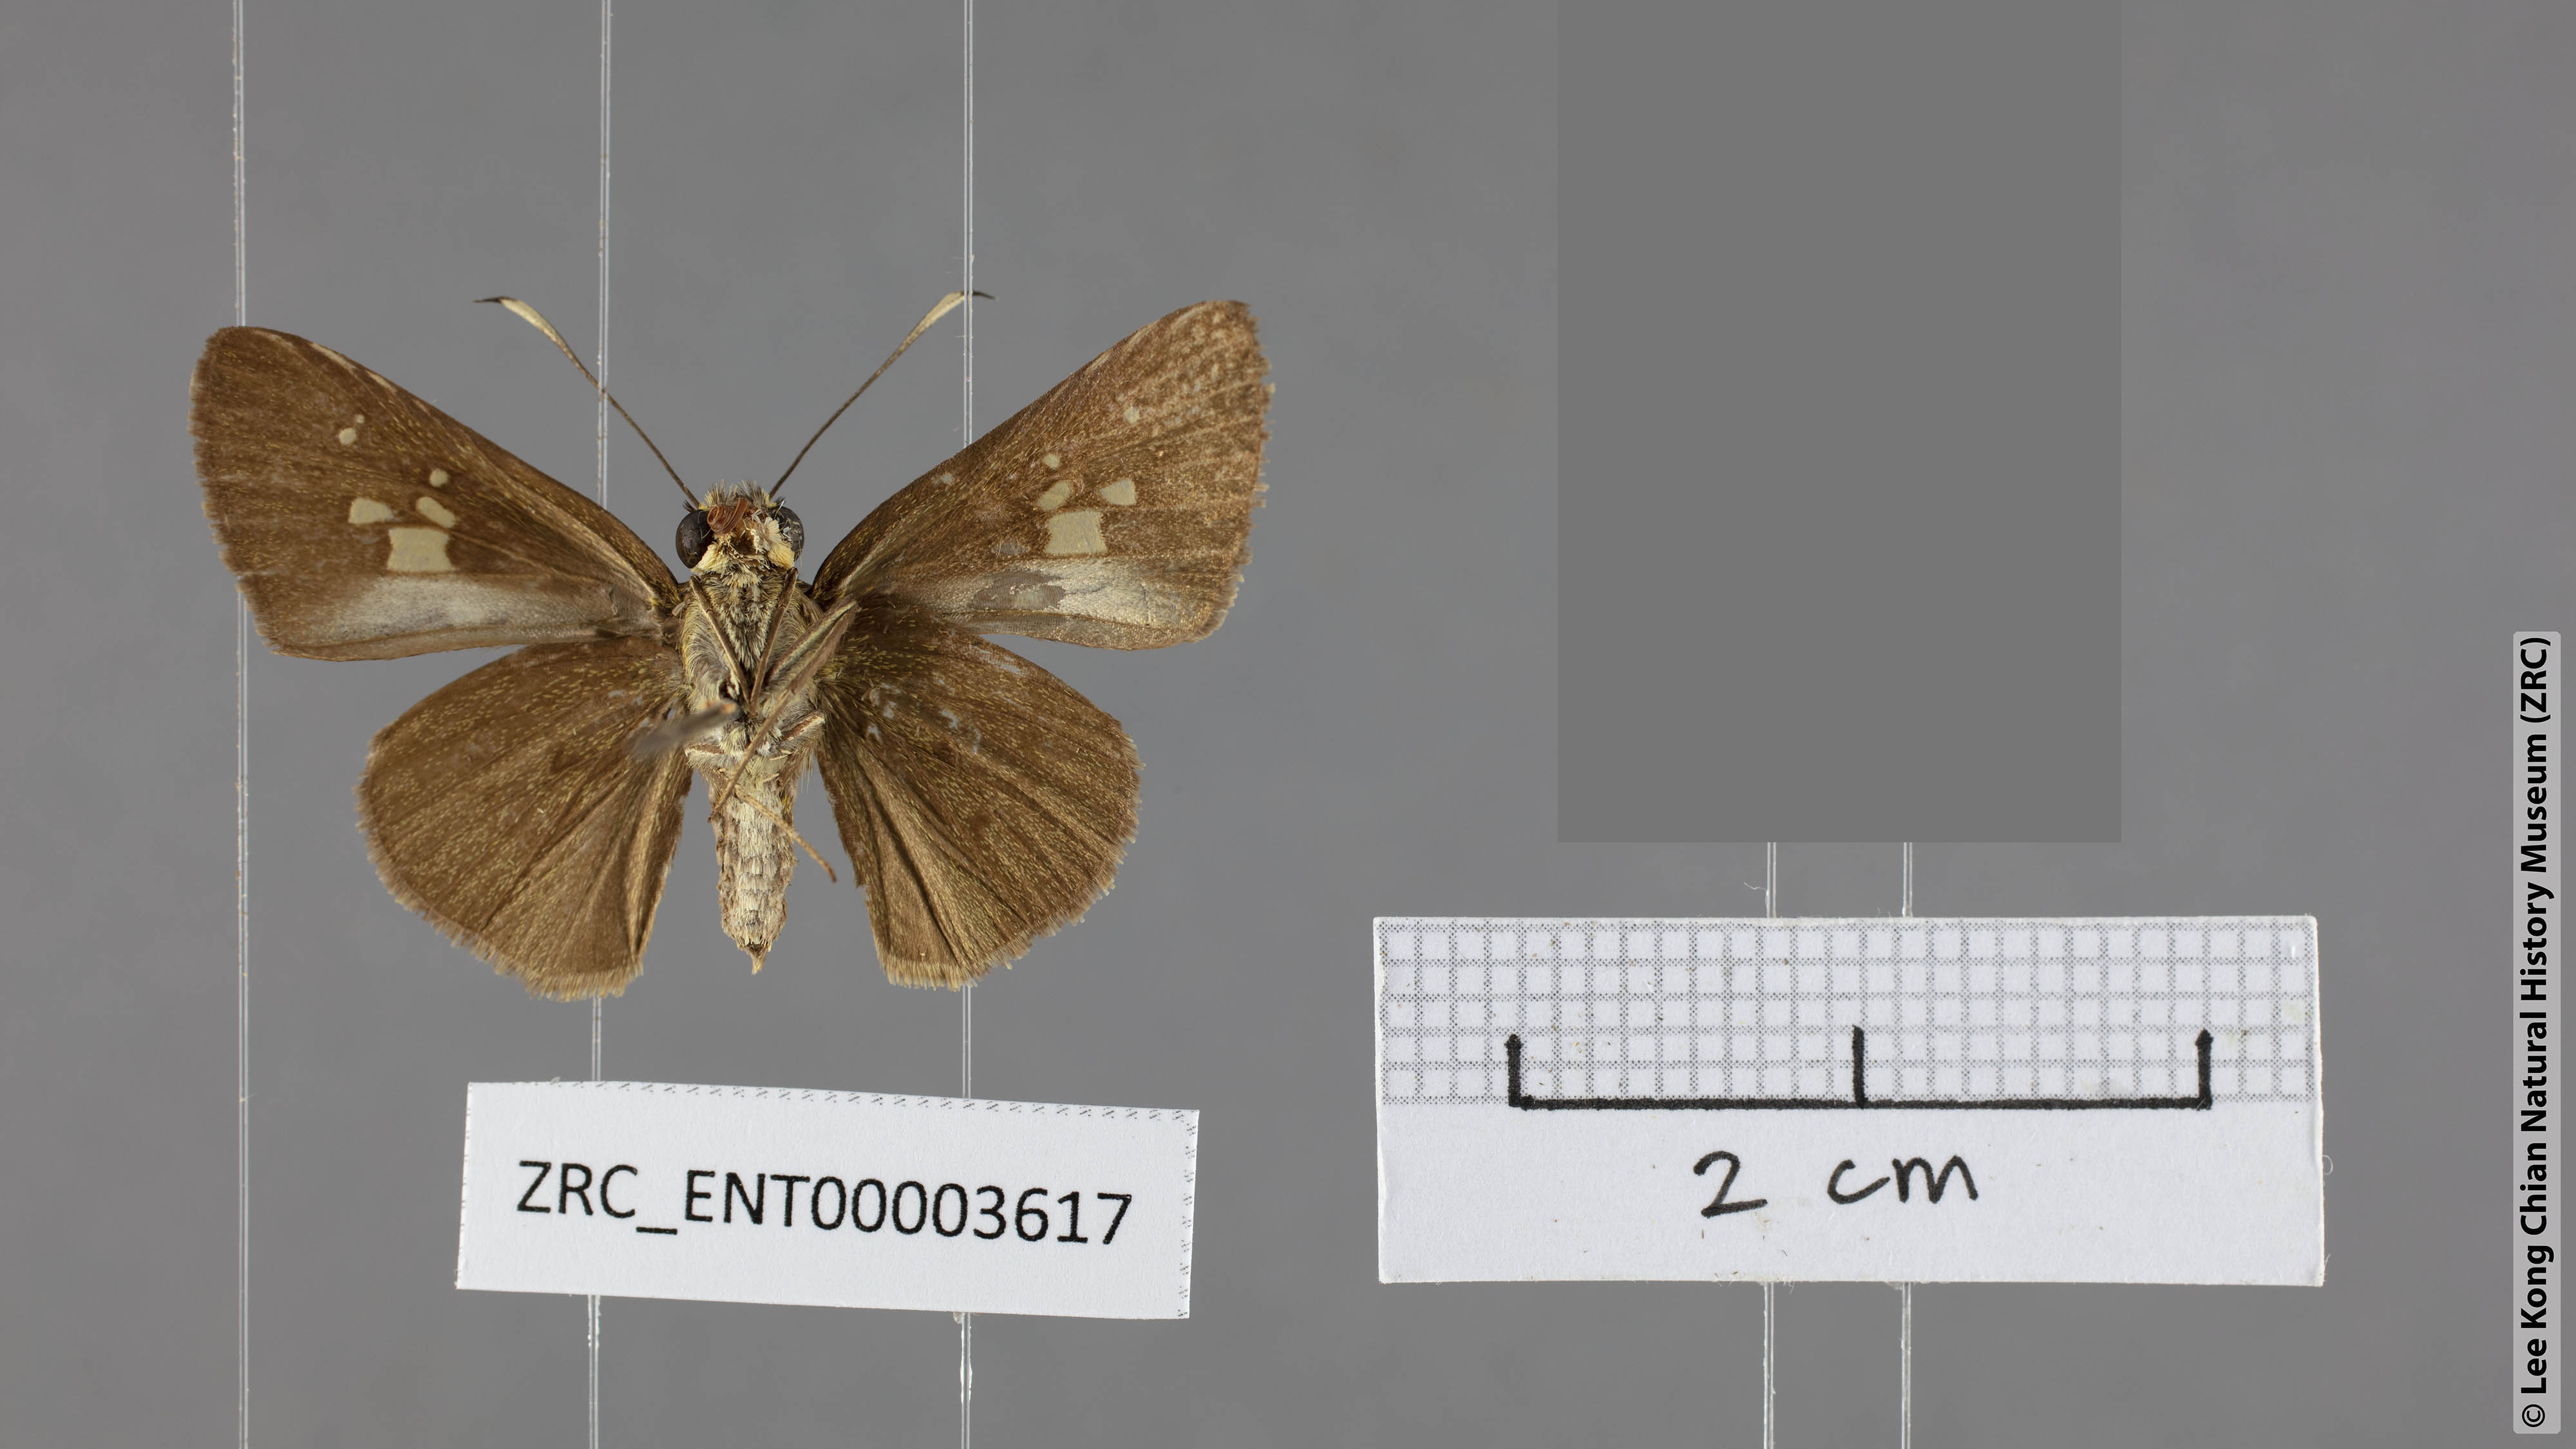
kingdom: Animalia
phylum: Arthropoda
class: Insecta
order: Lepidoptera
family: Hesperiidae
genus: Zographetus
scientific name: Zographetus kutu
